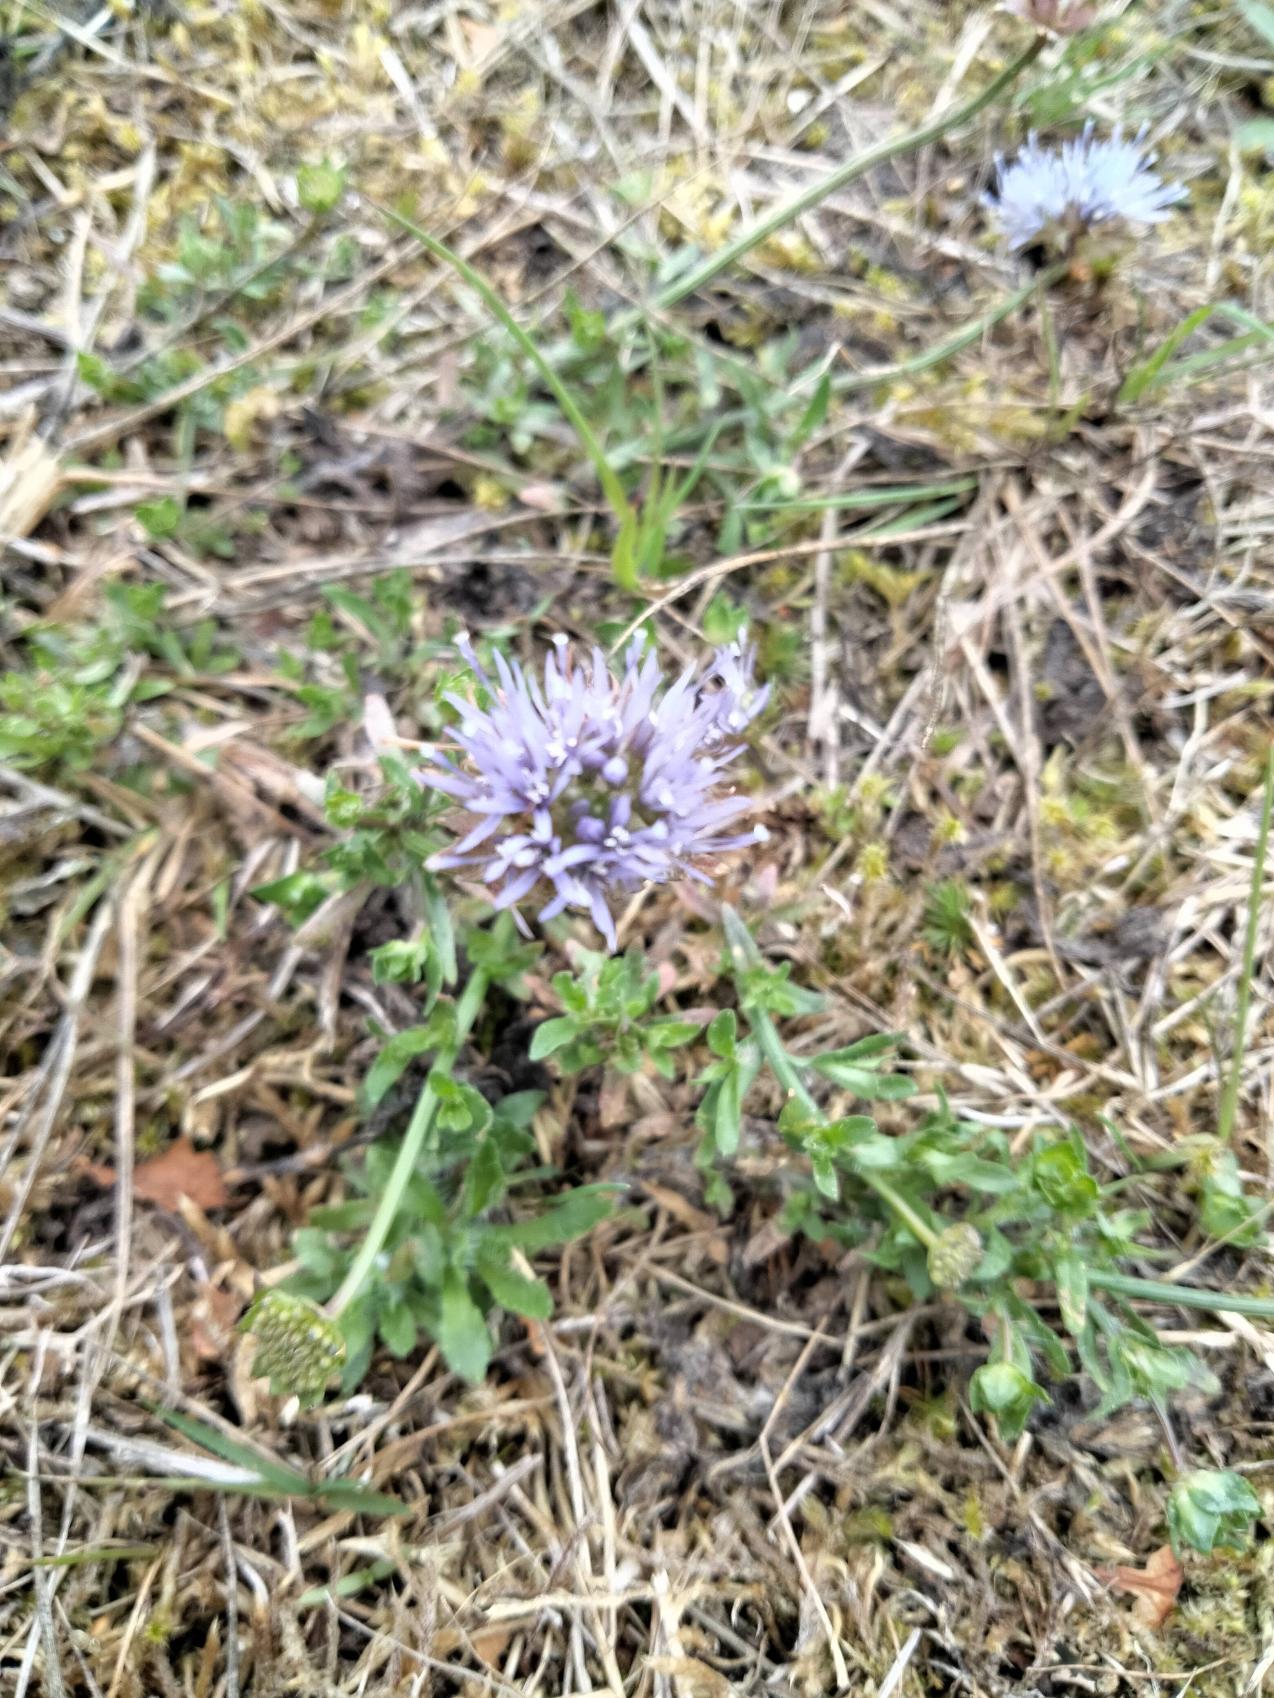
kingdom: Plantae
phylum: Tracheophyta
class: Magnoliopsida
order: Asterales
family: Campanulaceae
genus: Jasione
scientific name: Jasione montana
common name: Blåmunke
